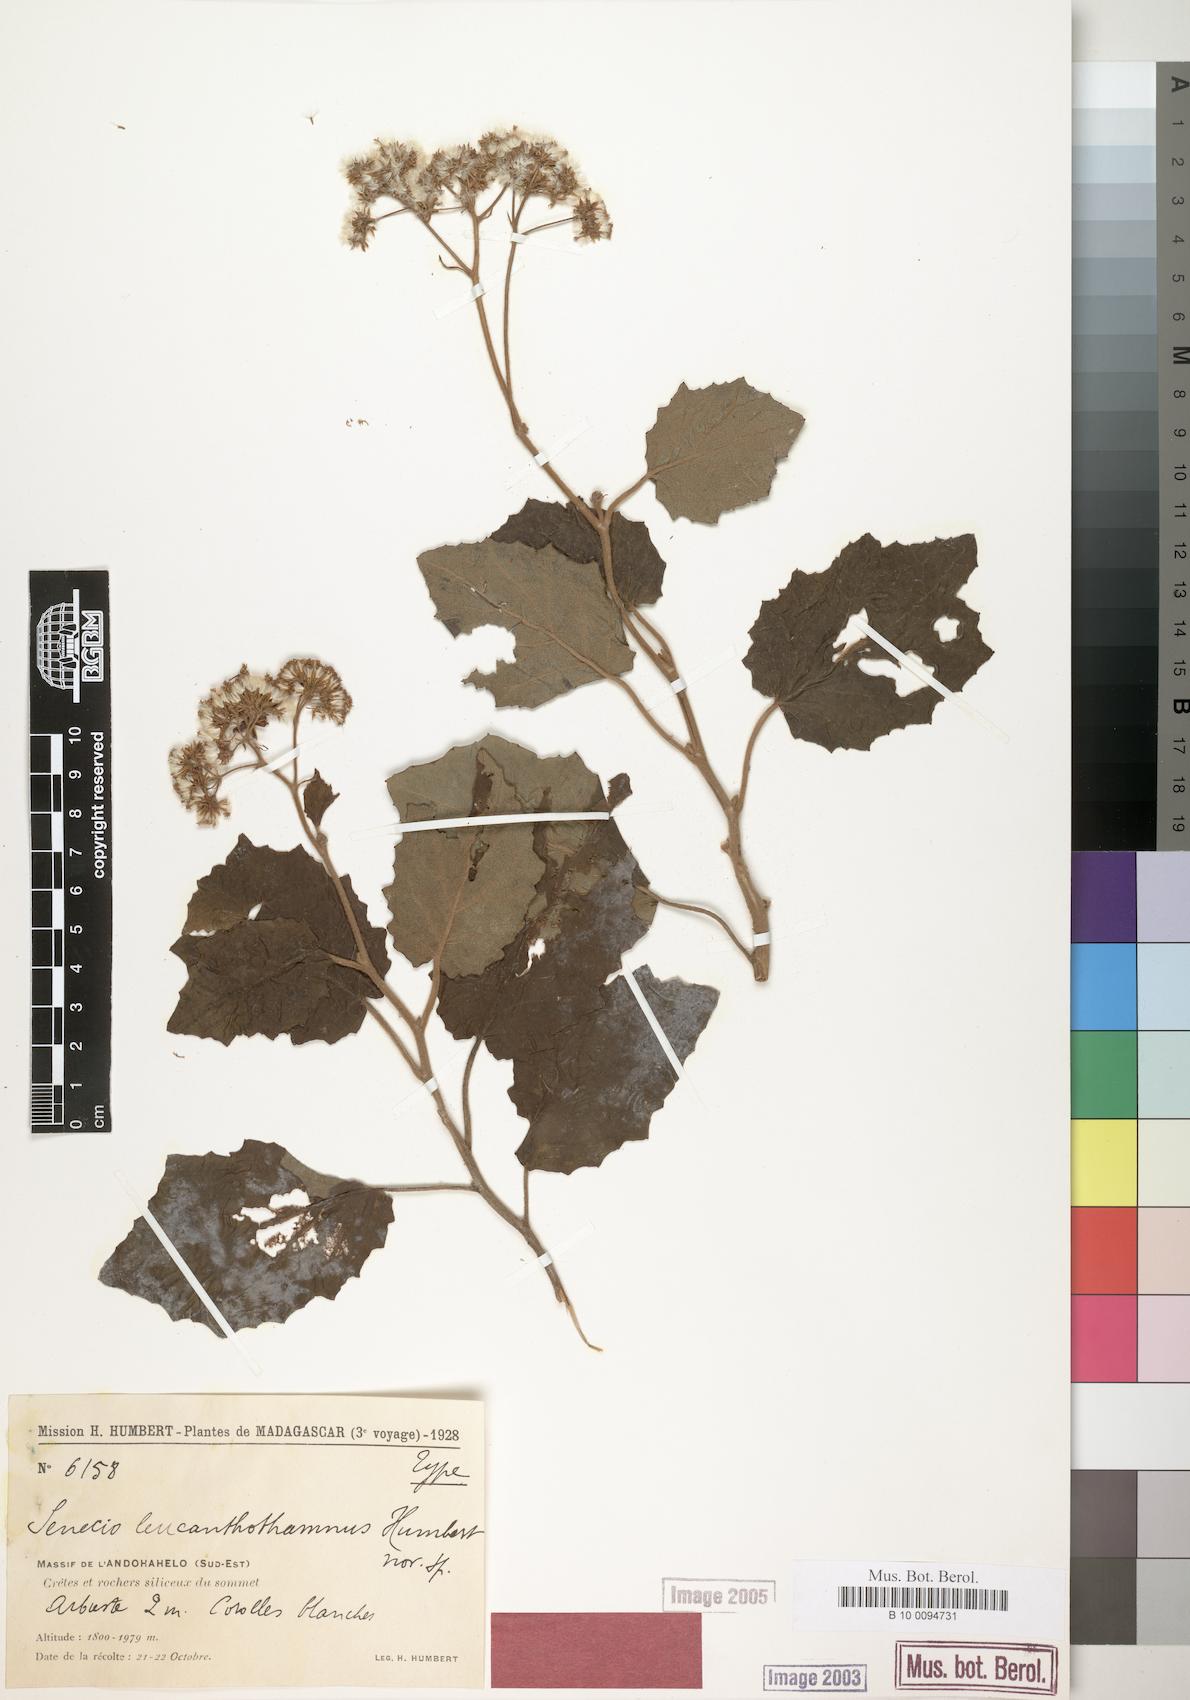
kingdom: Plantae
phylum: Tracheophyta
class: Magnoliopsida
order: Asterales
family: Asteraceae
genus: Hubertia
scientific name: Hubertia leucanthothamnus
